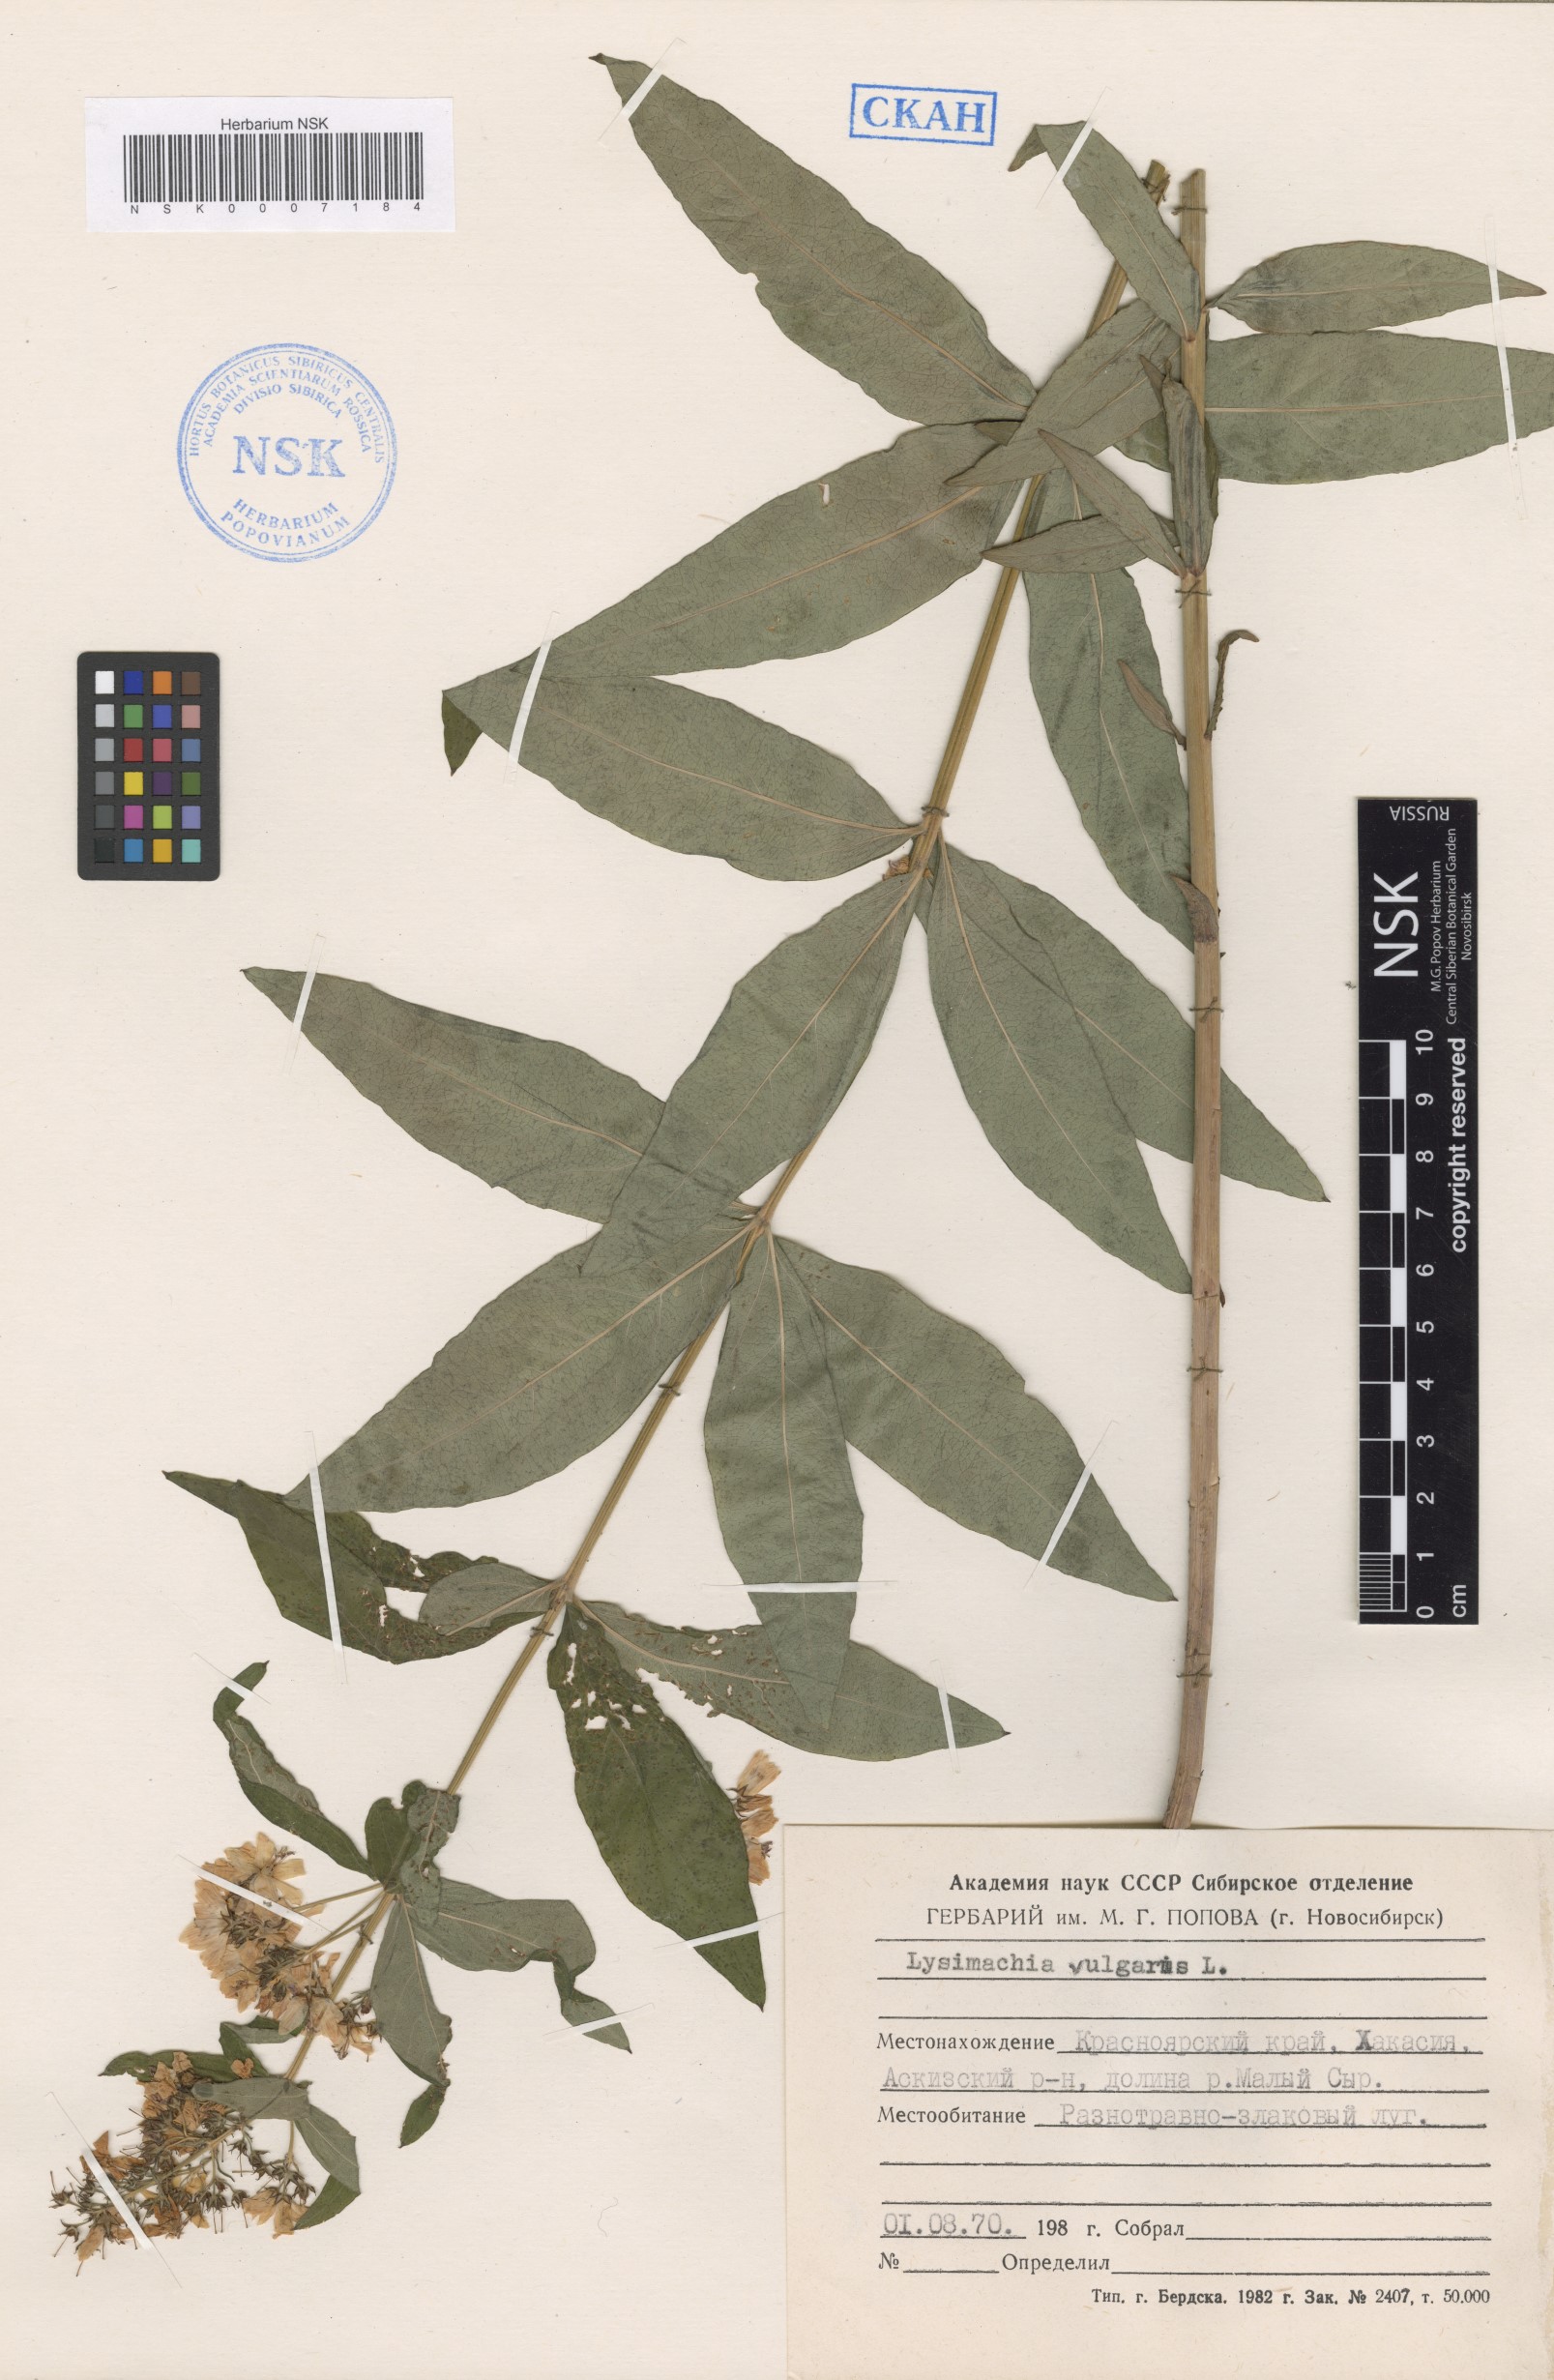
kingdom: Plantae
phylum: Tracheophyta
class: Magnoliopsida
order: Ericales
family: Primulaceae
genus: Lysimachia
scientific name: Lysimachia vulgaris
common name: Yellow loosestrife
